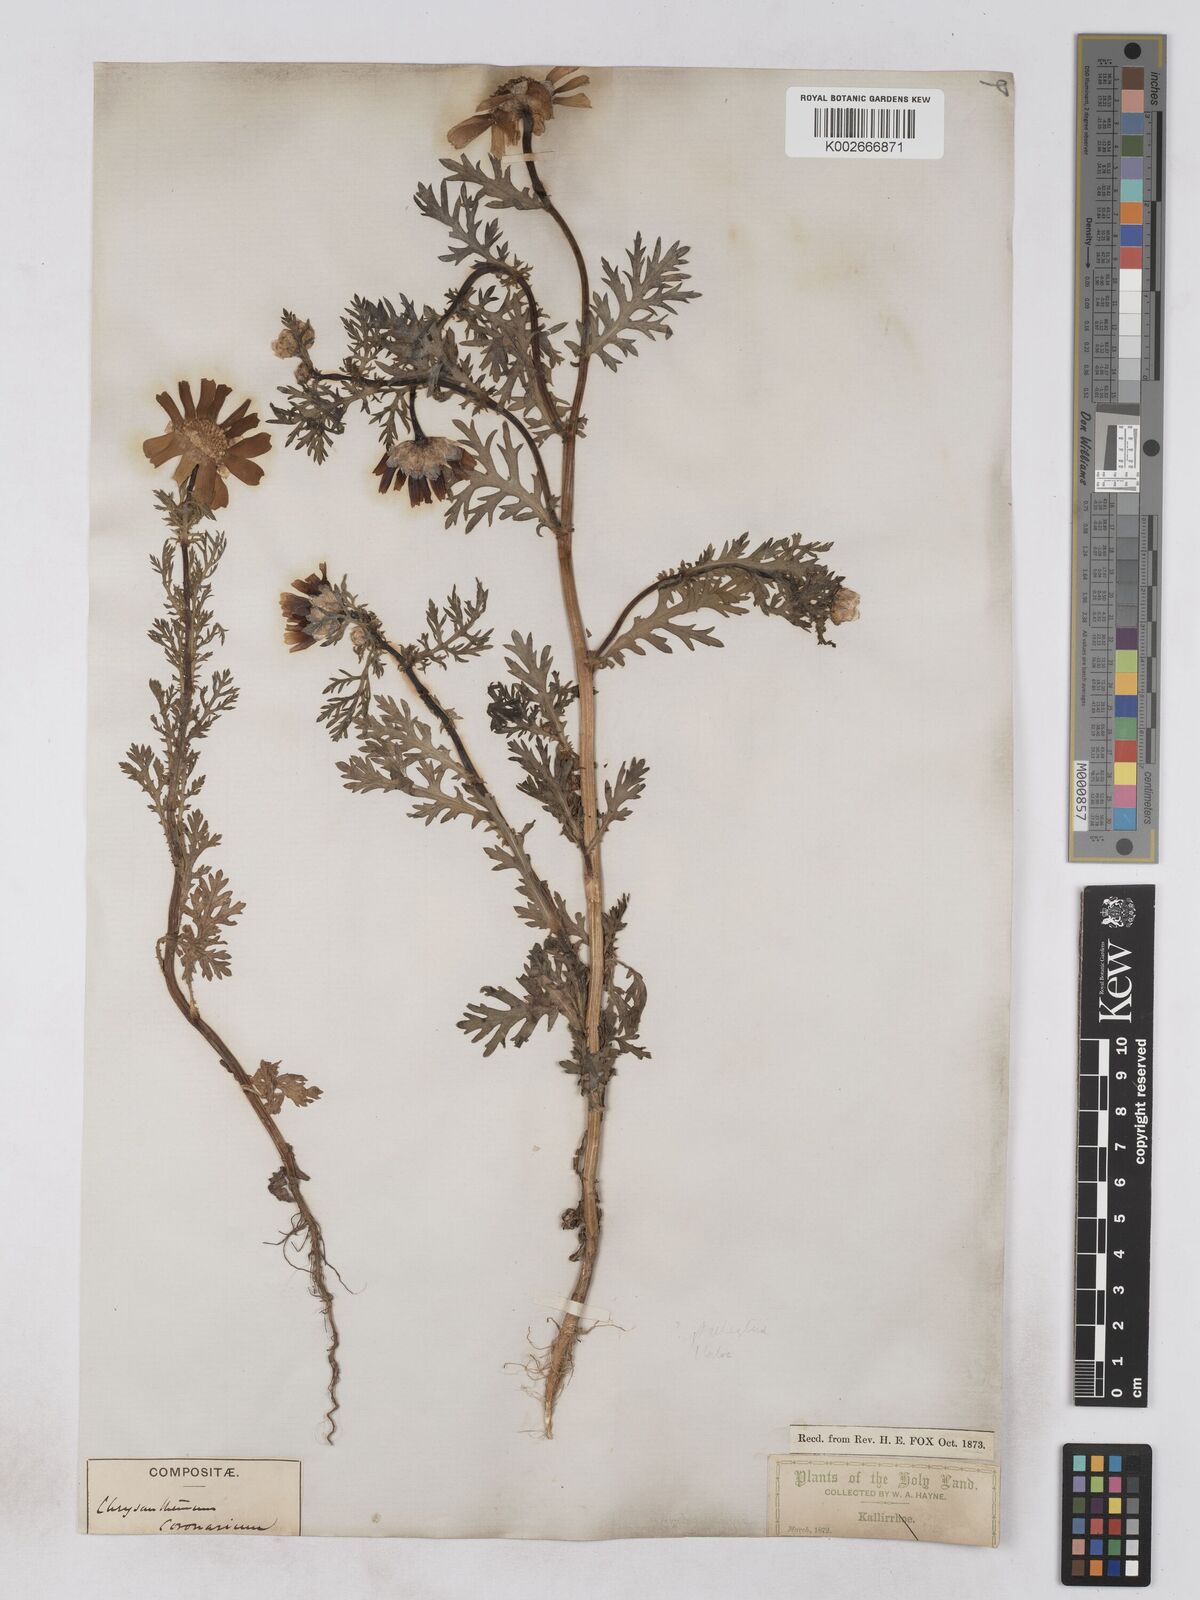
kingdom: Plantae
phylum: Tracheophyta
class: Magnoliopsida
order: Asterales
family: Asteraceae
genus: Glebionis
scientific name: Glebionis coronaria
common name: Crowndaisy
